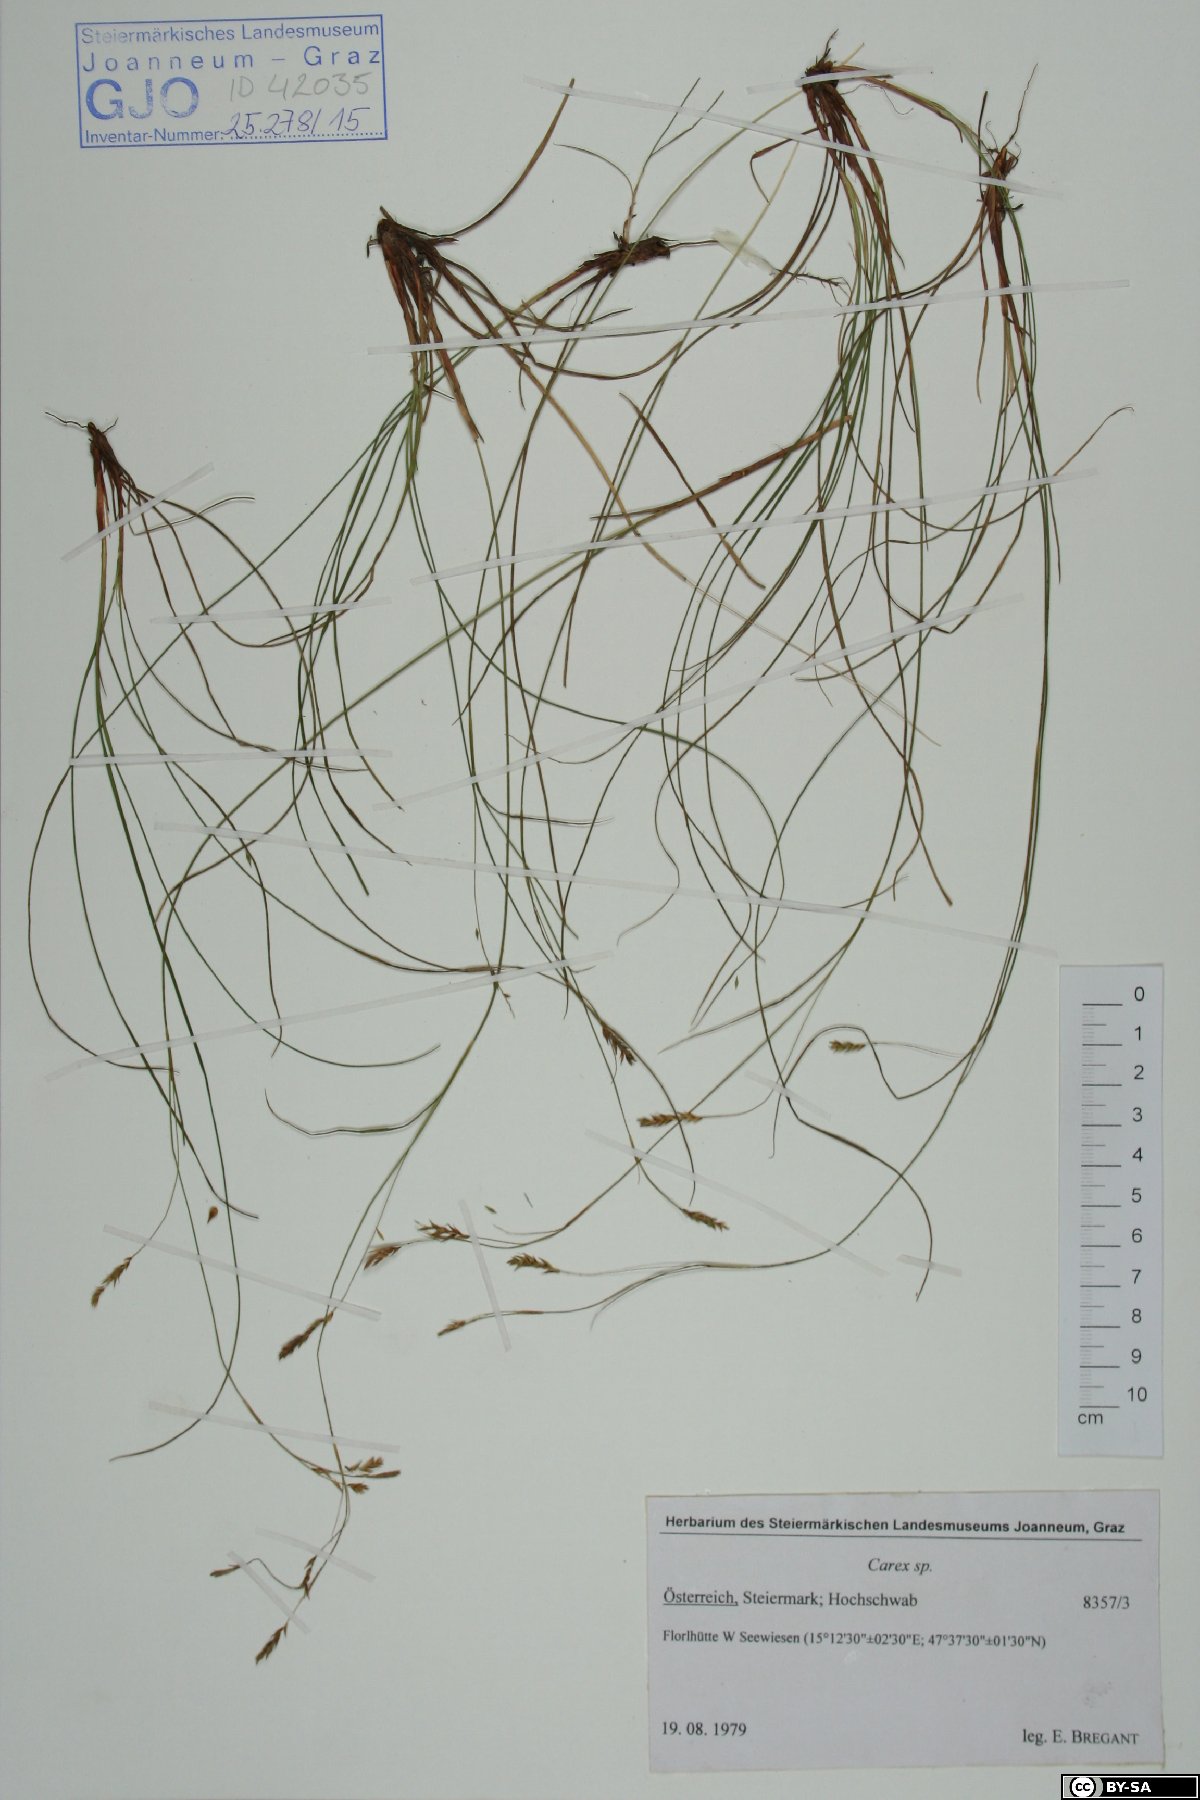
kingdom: Plantae
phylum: Tracheophyta
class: Liliopsida
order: Poales
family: Cyperaceae
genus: Carex
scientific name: Carex
